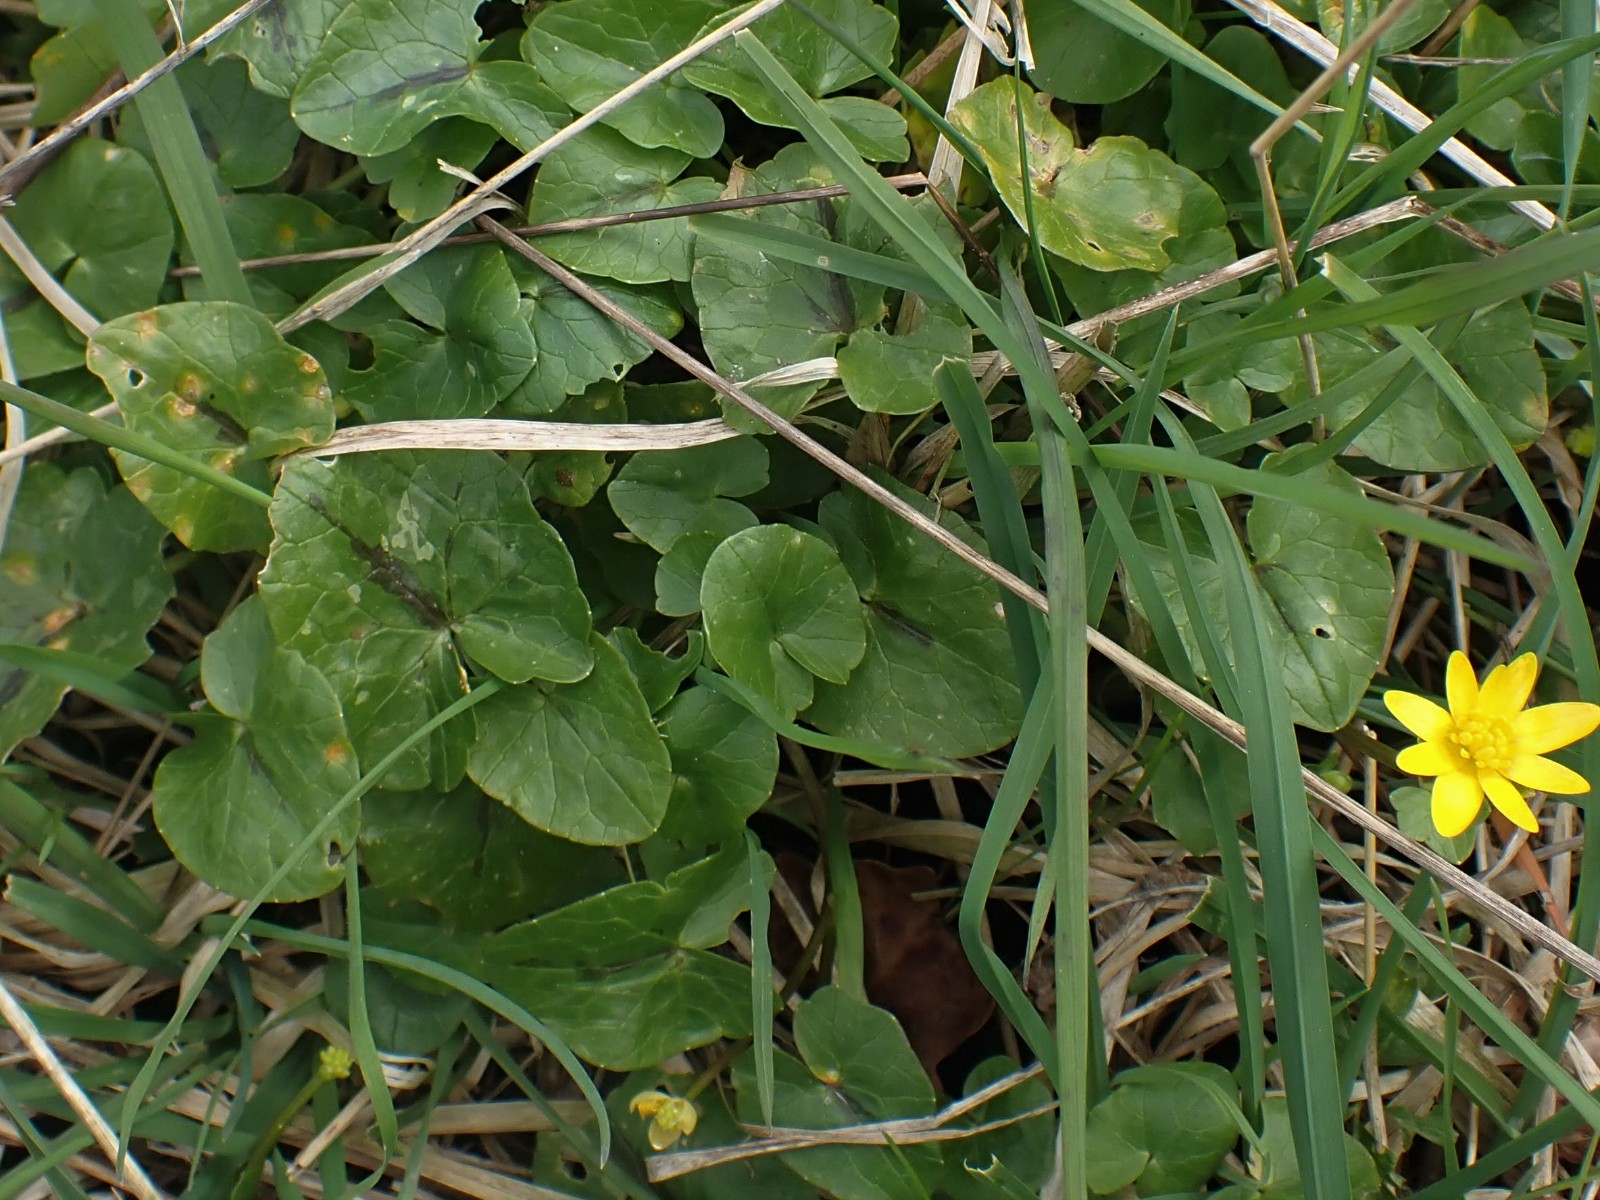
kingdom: Fungi
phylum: Basidiomycota
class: Pucciniomycetes
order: Pucciniales
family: Pucciniaceae
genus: Uromyces
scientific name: Uromyces dactylidis
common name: ranunkel-encellerust
